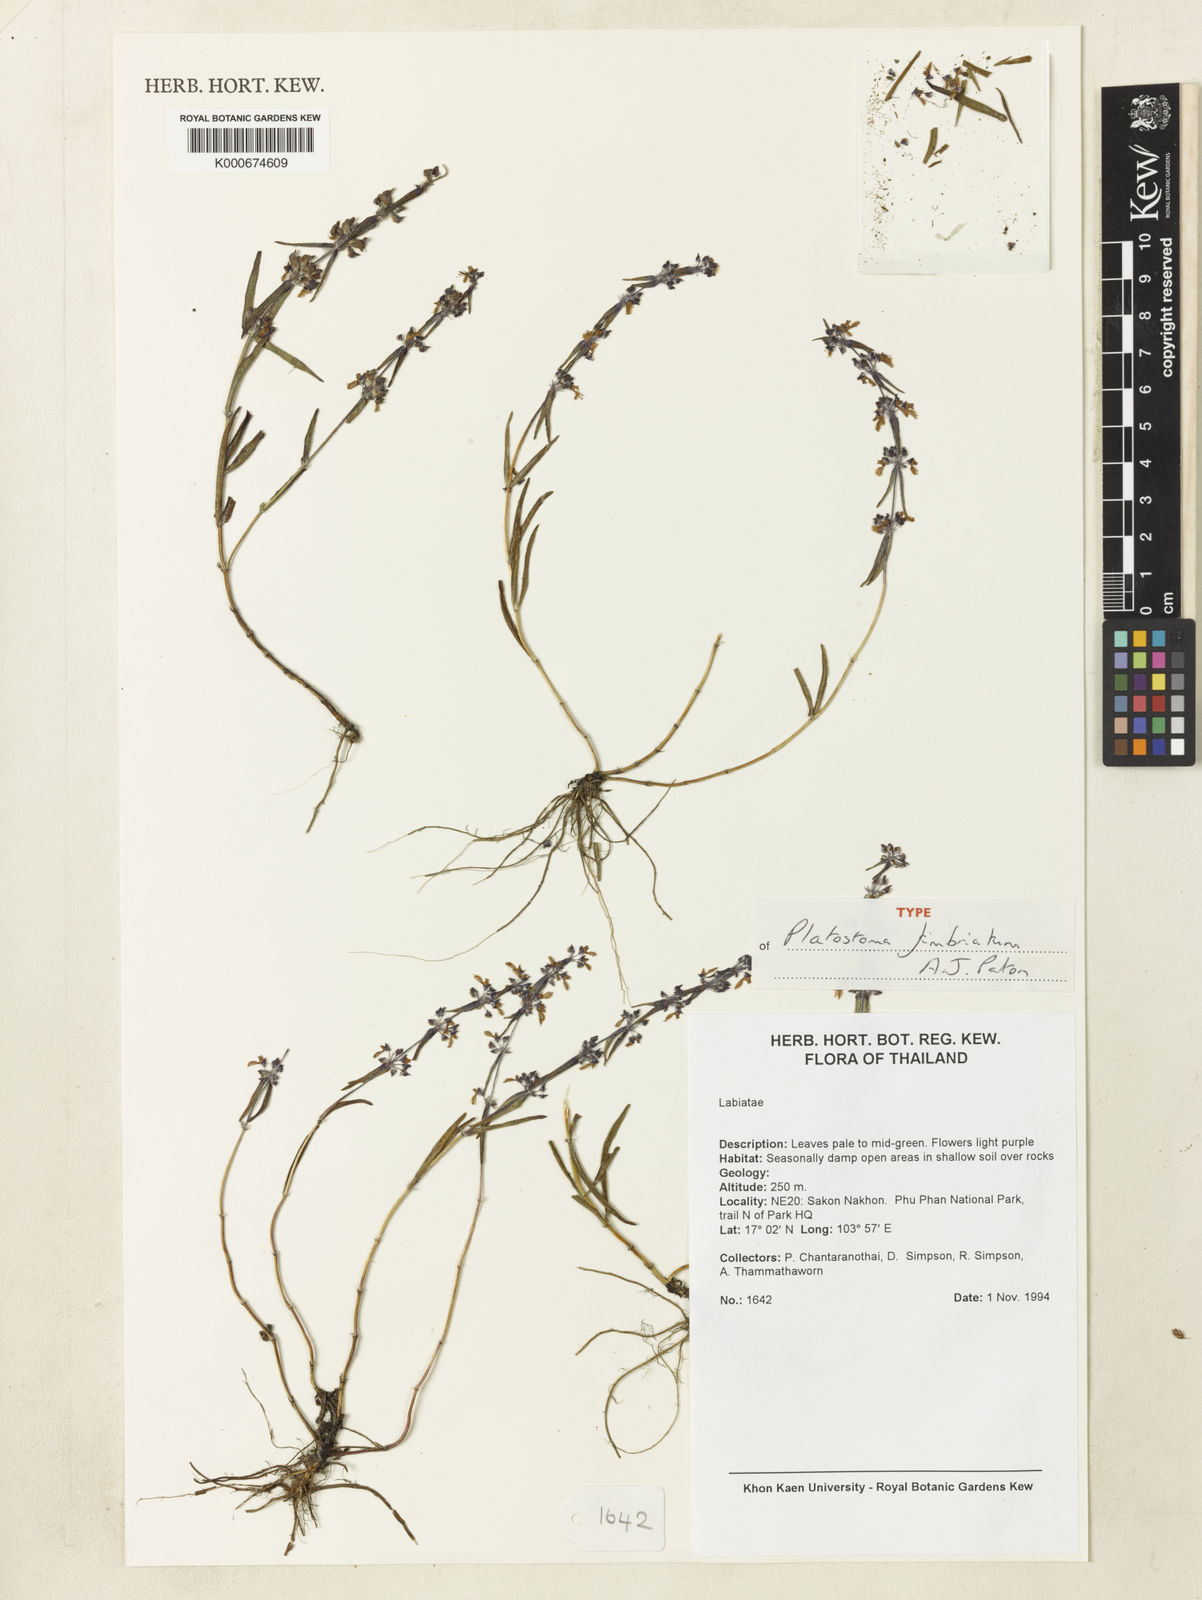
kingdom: Plantae
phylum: Tracheophyta
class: Magnoliopsida
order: Lamiales
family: Lamiaceae
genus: Platostoma
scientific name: Platostoma fimbriatum
